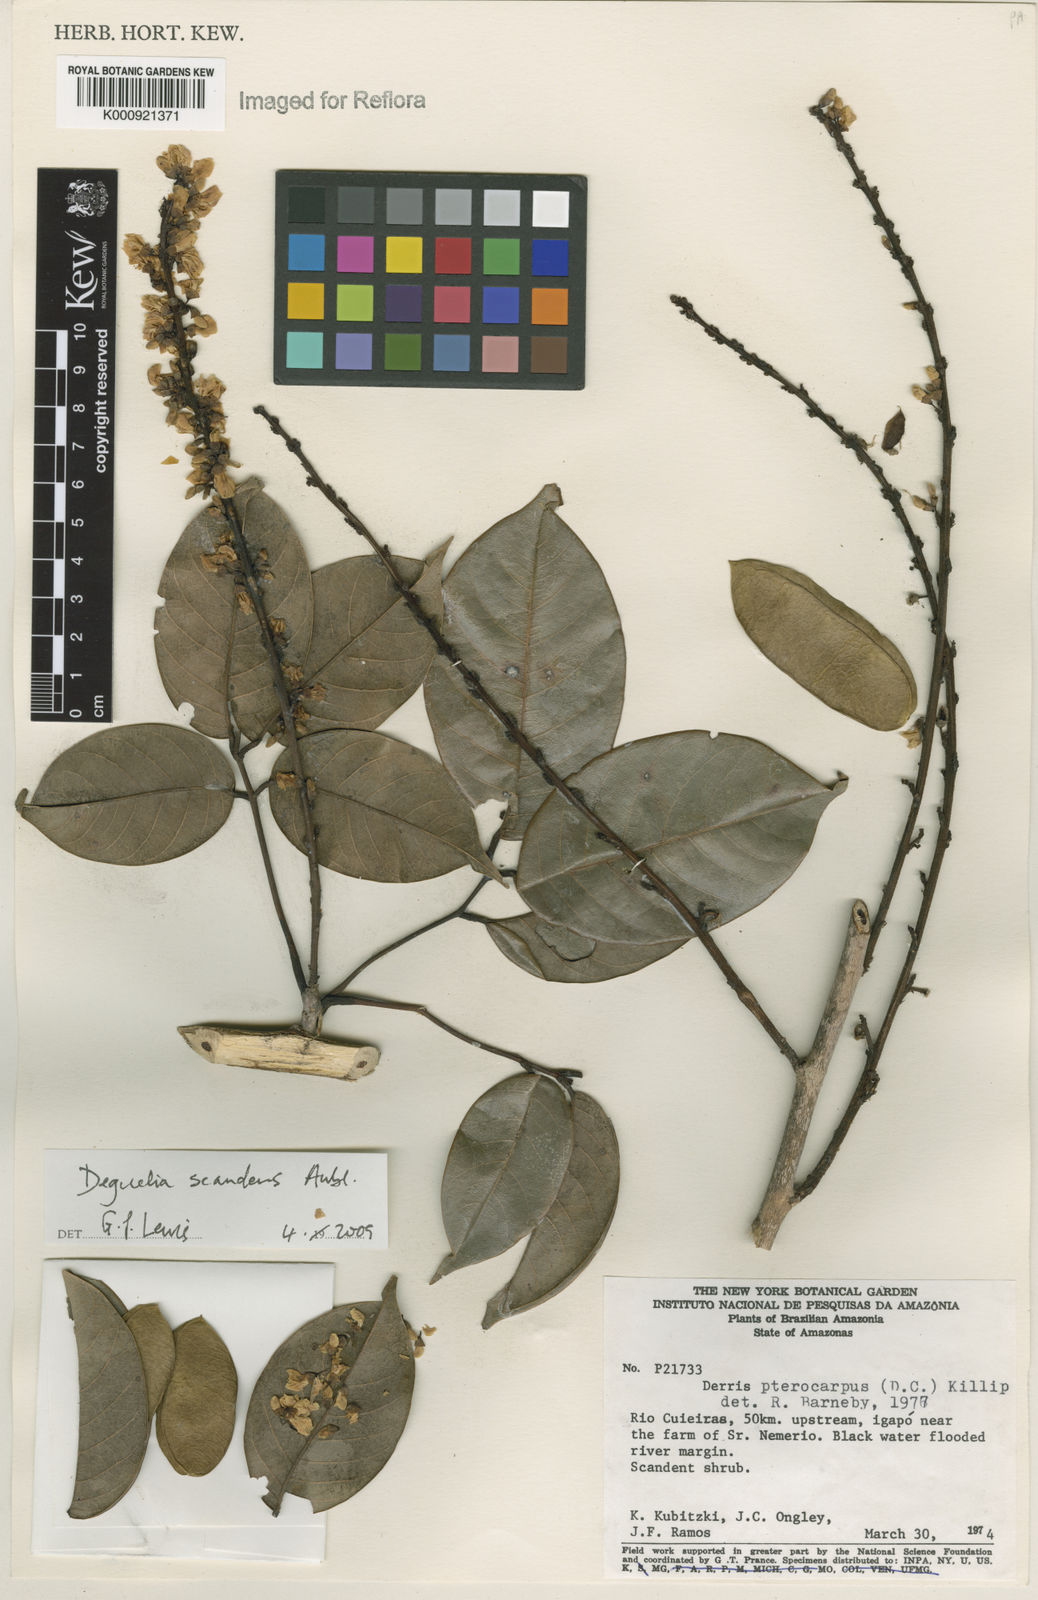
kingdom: Plantae
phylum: Tracheophyta
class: Magnoliopsida
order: Fabales
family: Fabaceae
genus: Deguelia
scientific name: Deguelia scandens
